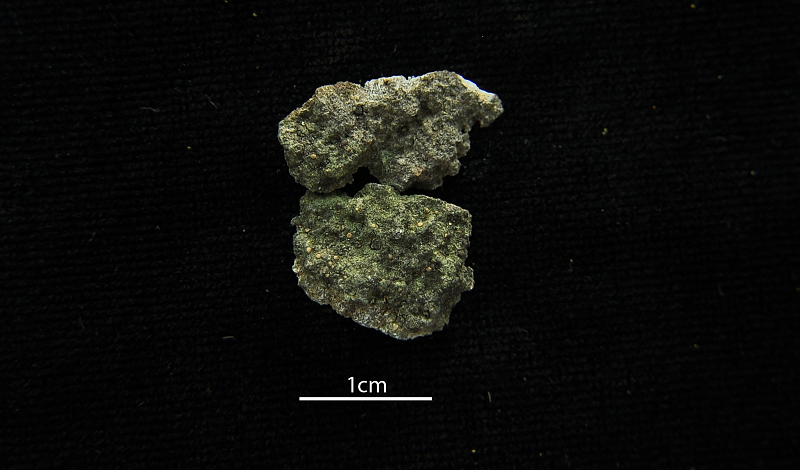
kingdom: Fungi
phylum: Ascomycota
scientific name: Ascomycota
